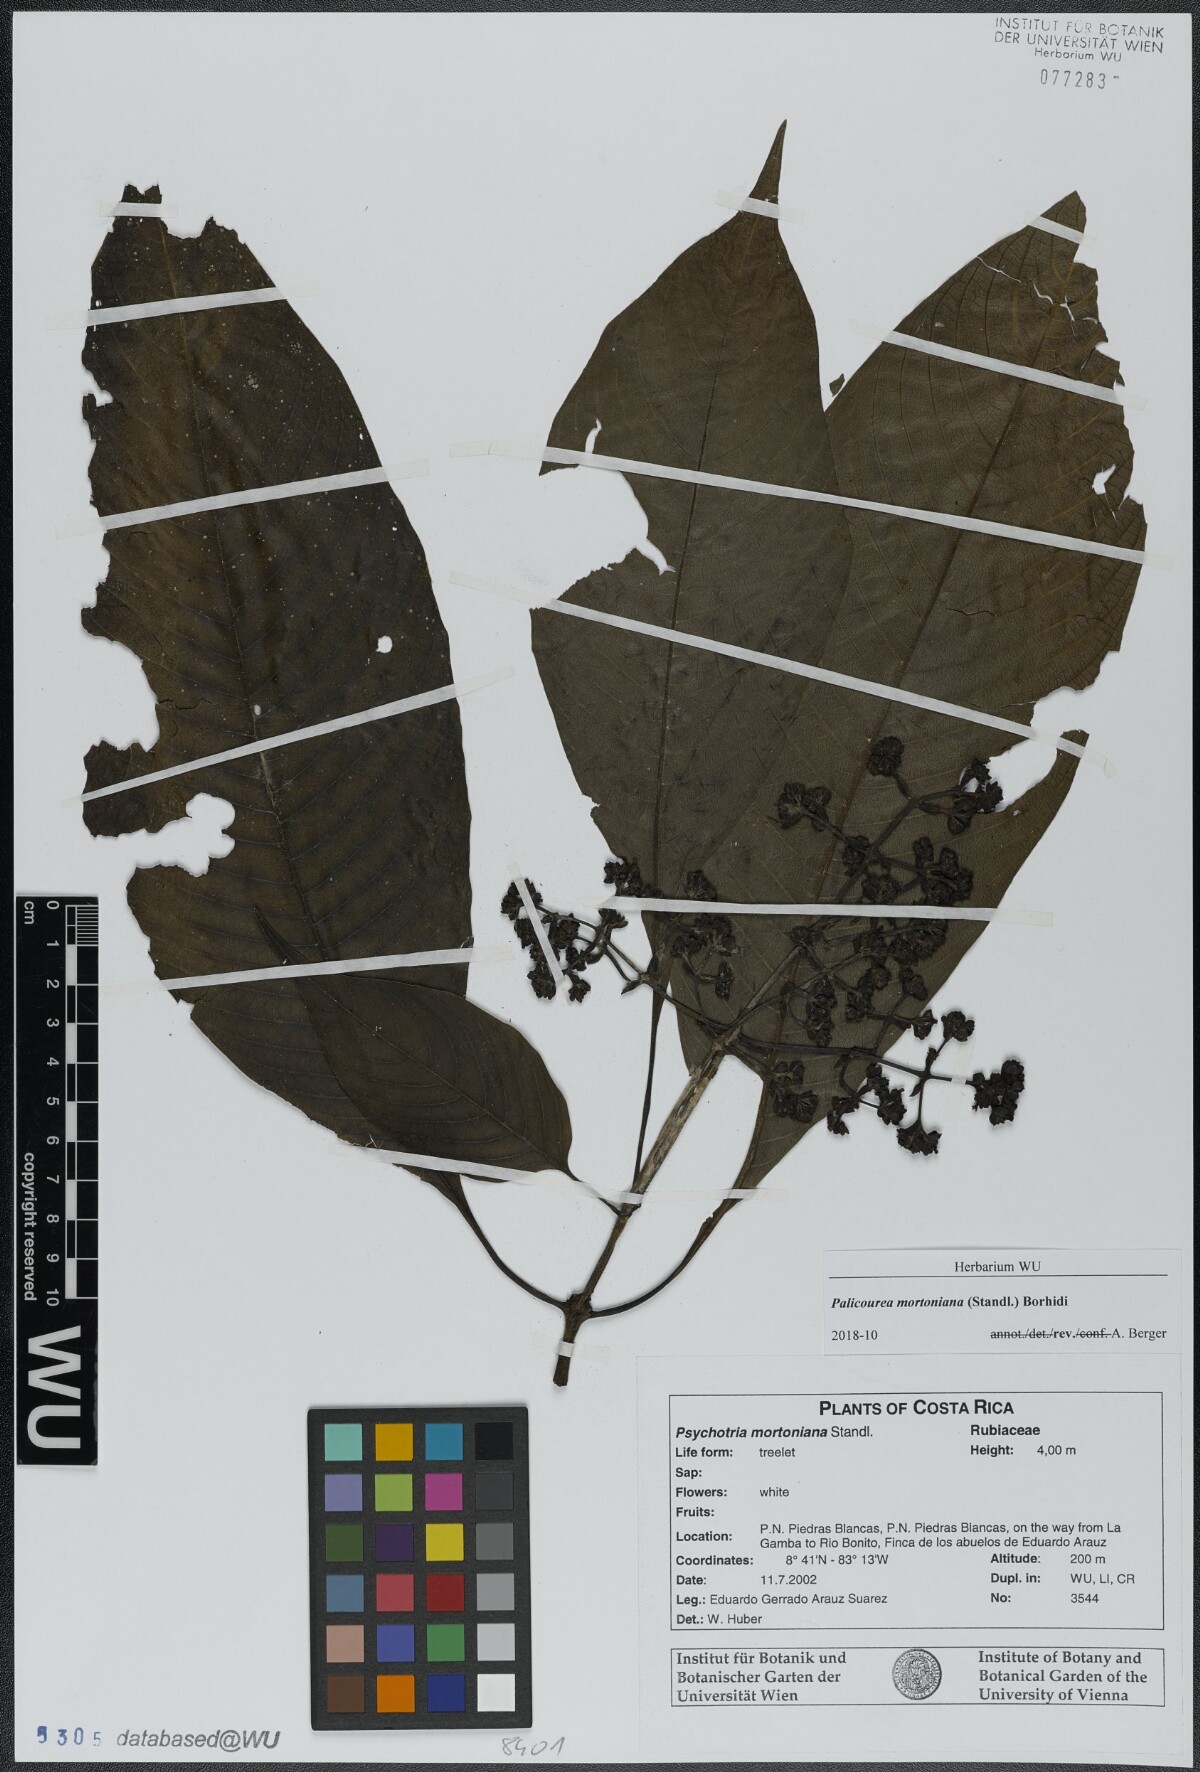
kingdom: Plantae
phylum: Tracheophyta
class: Magnoliopsida
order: Gentianales
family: Rubiaceae
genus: Palicourea
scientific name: Palicourea mortoniana
